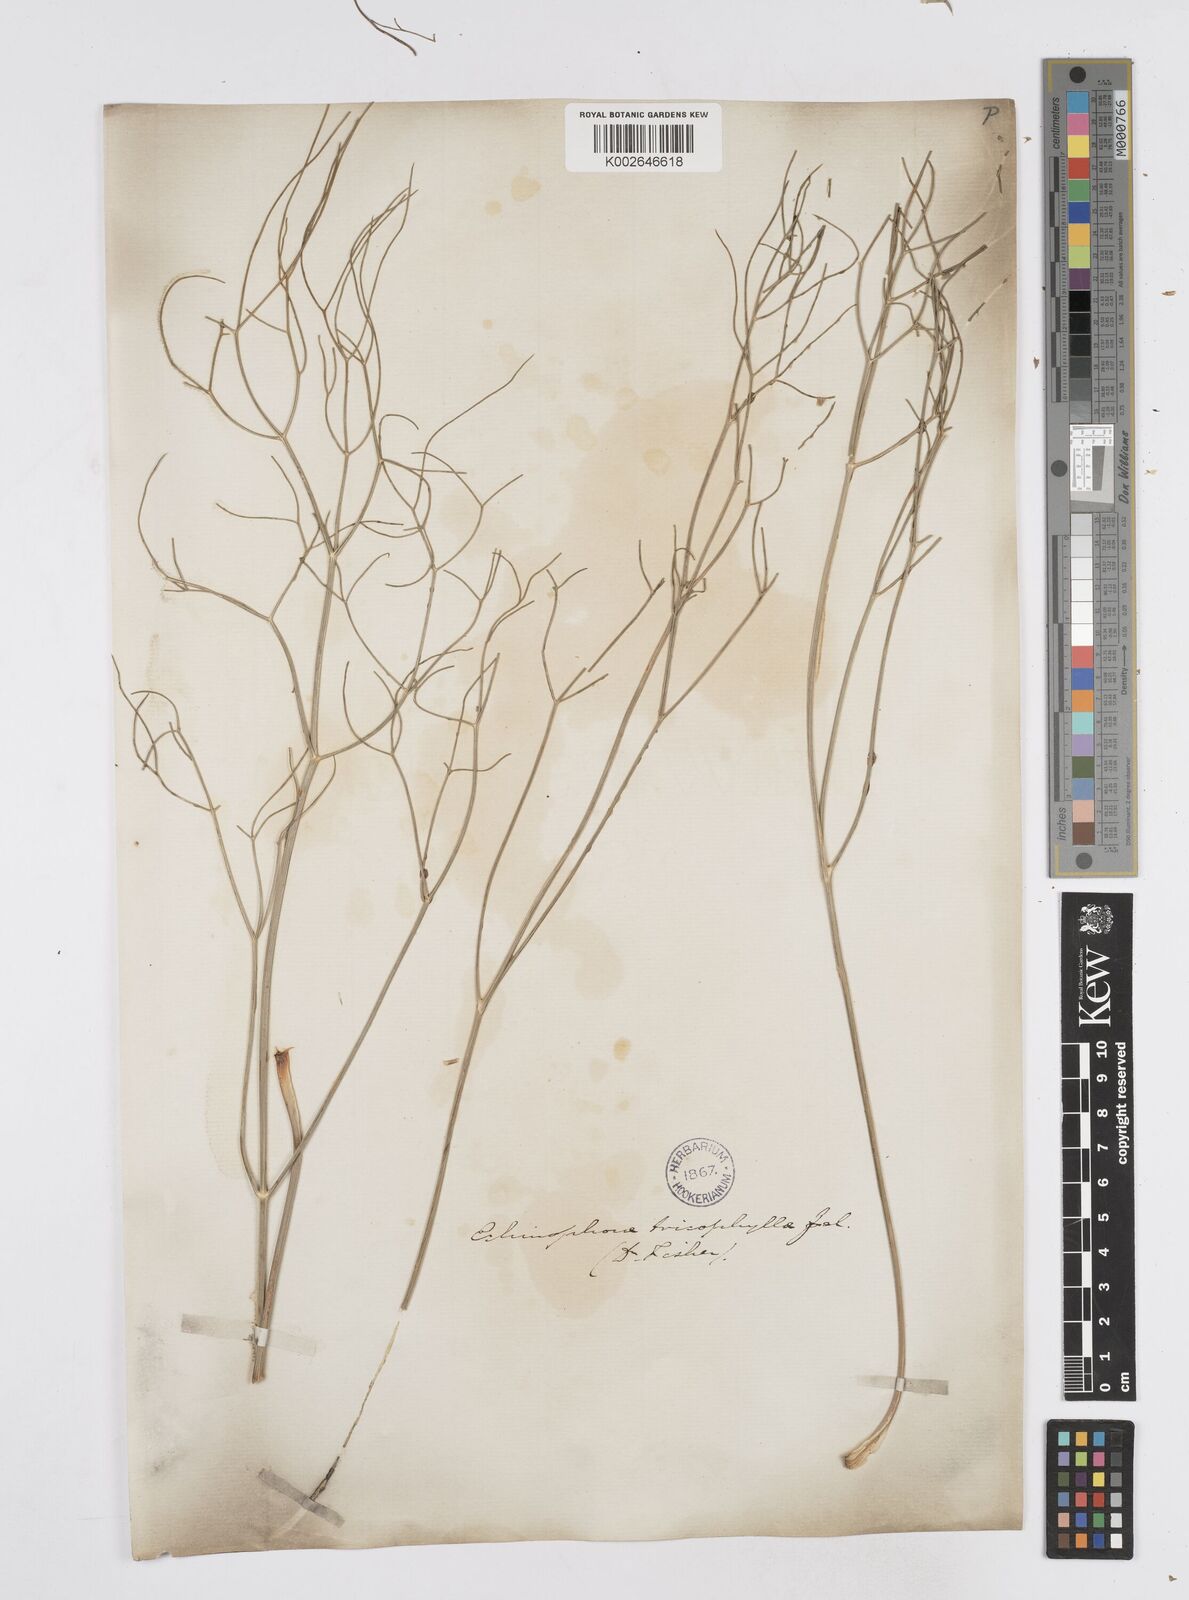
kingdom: Plantae
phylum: Tracheophyta
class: Magnoliopsida
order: Apiales
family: Apiaceae
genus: Echinophora
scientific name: Echinophora trichophylla
